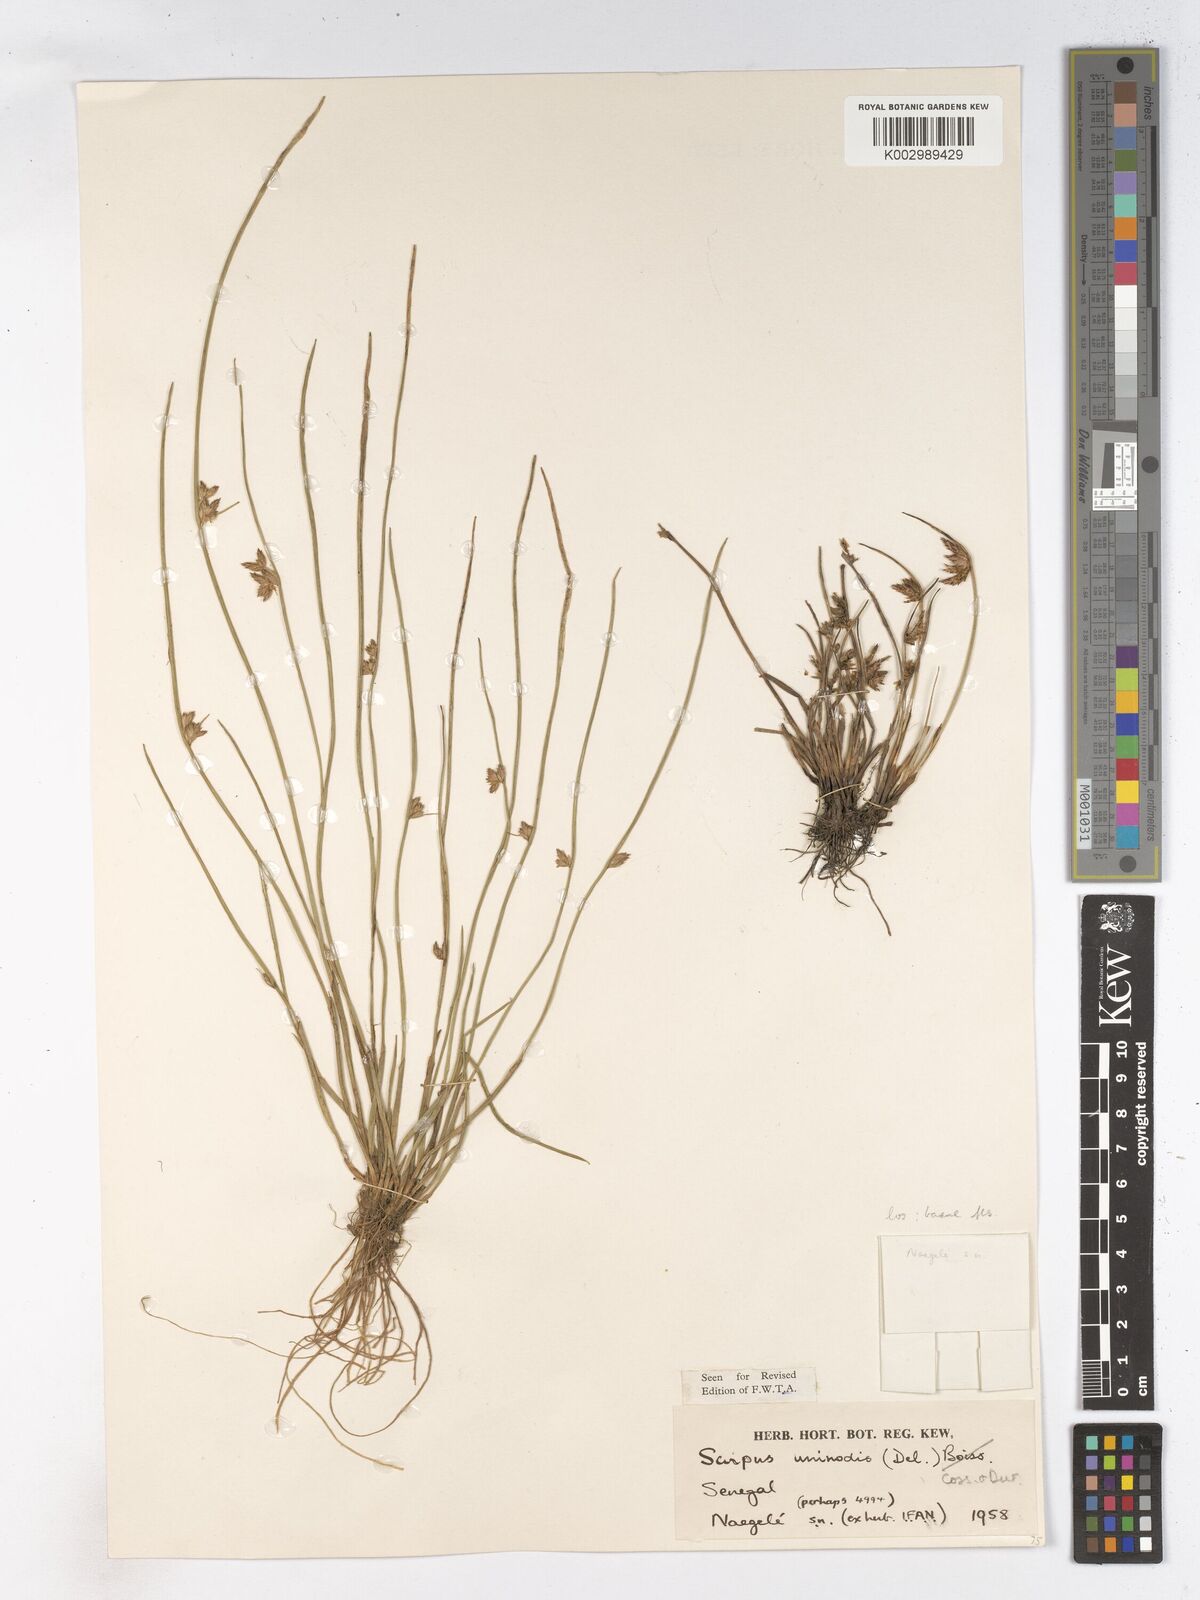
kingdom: Plantae
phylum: Tracheophyta
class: Liliopsida
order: Poales
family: Cyperaceae
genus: Schoenoplectus
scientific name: Schoenoplectus
